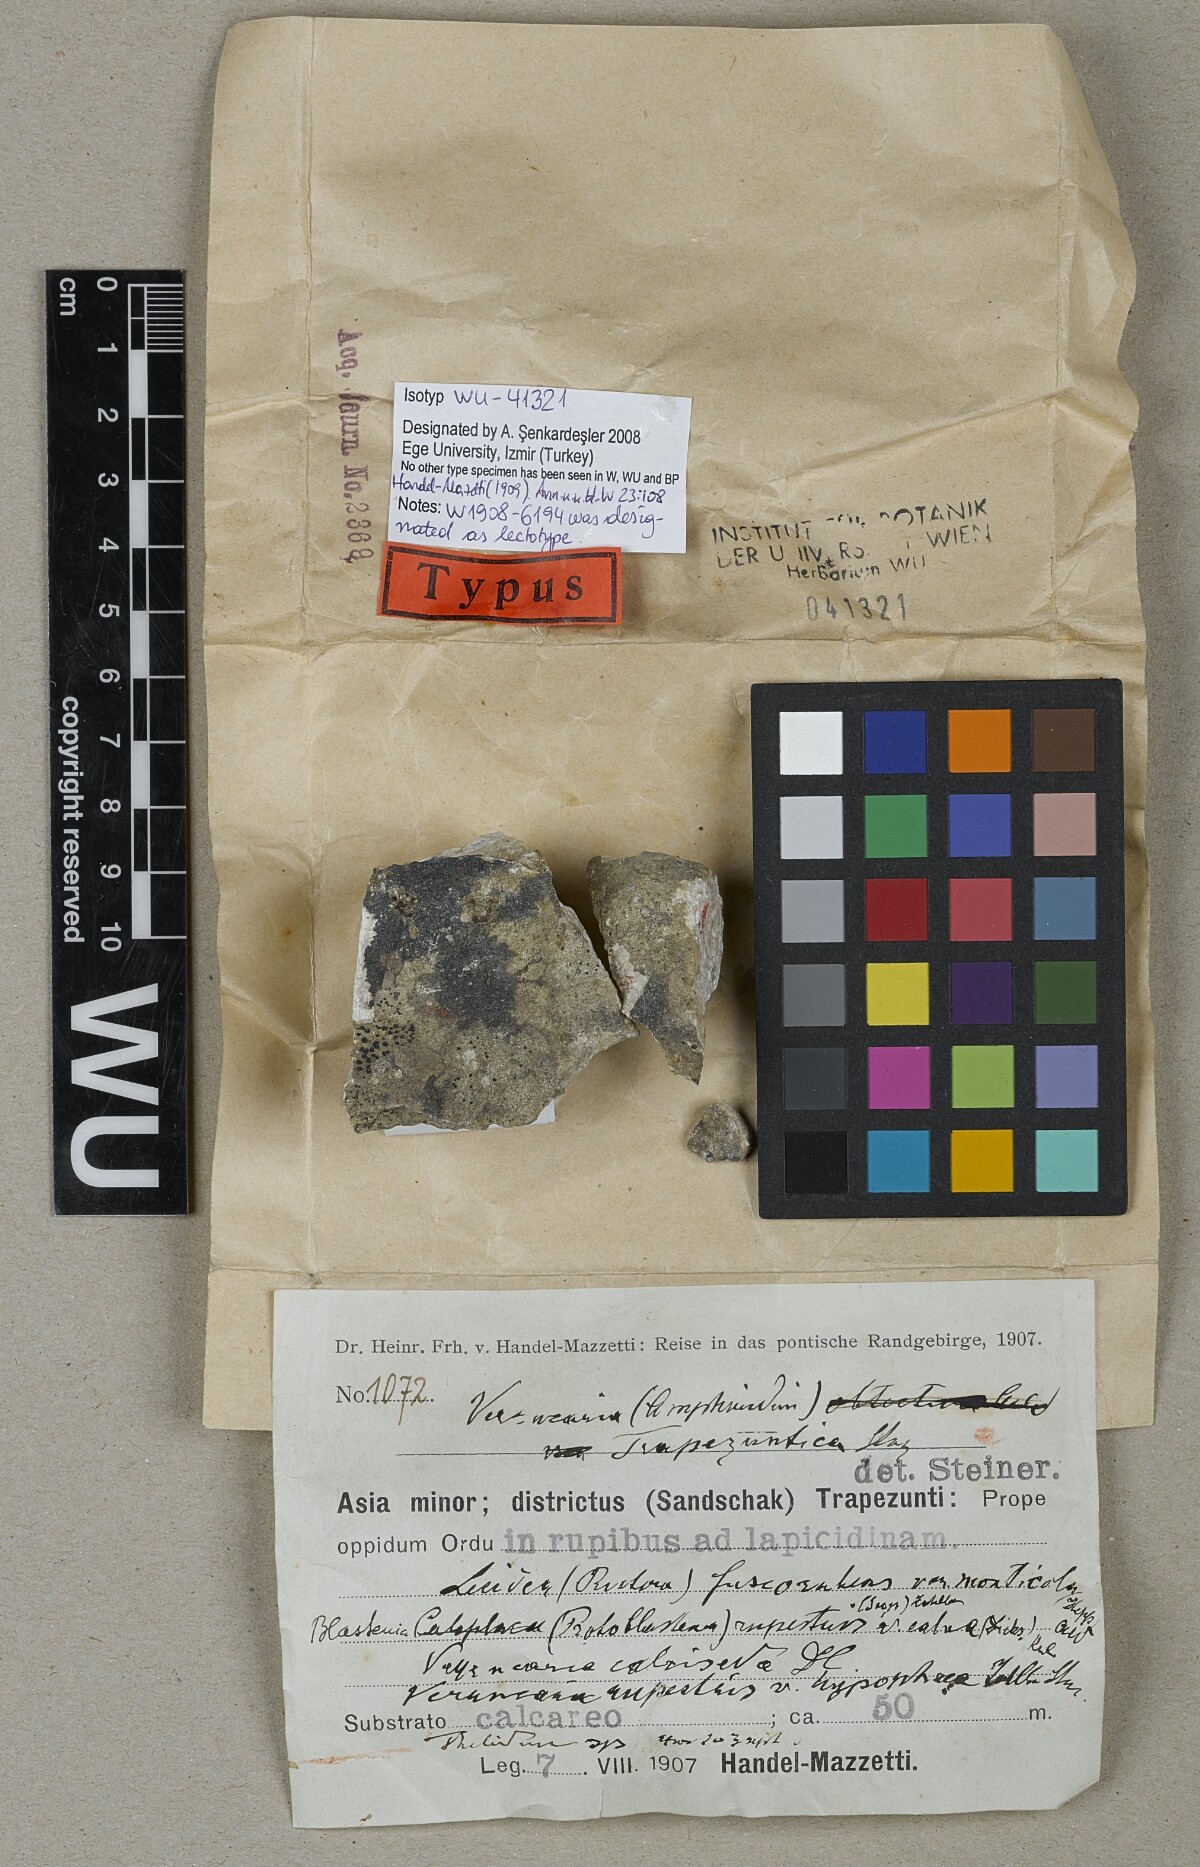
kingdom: Fungi
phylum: Ascomycota
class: Eurotiomycetes
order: Verrucariales
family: Verrucariaceae
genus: Verrucaria
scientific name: Verrucaria
